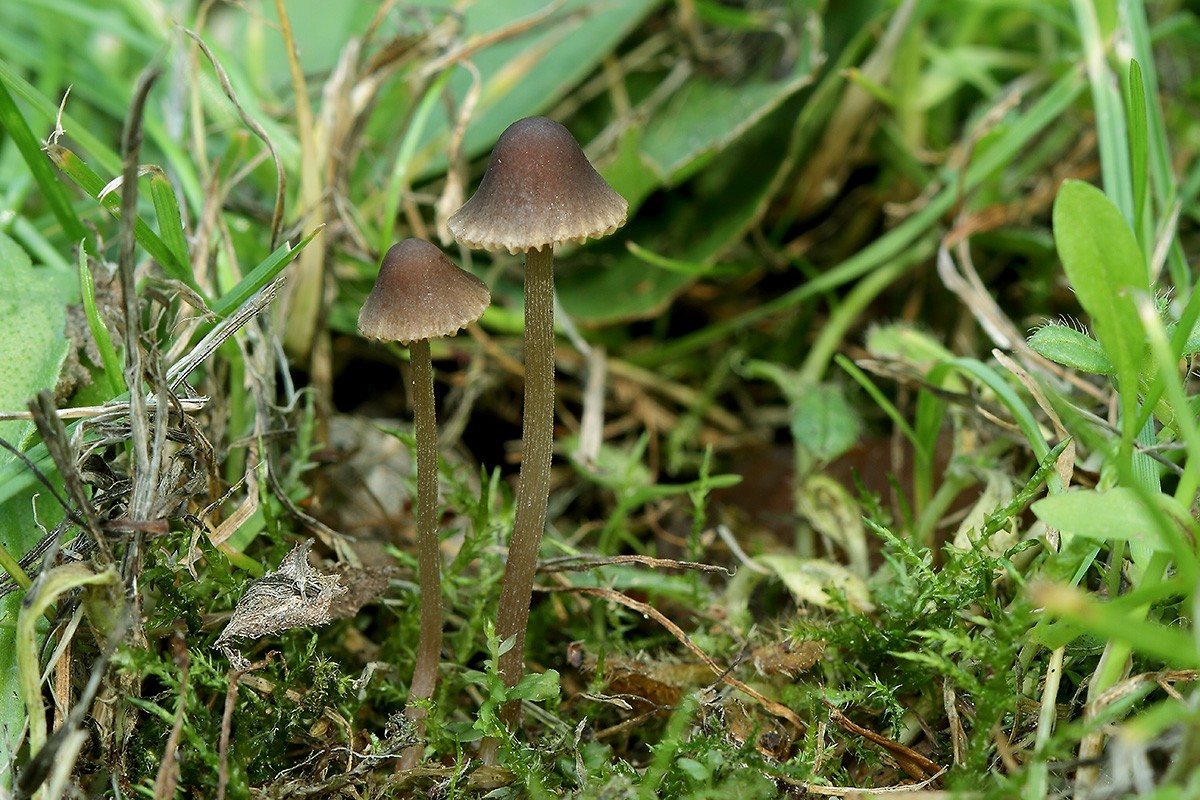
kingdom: Fungi
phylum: Basidiomycota
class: Agaricomycetes
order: Agaricales
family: Bolbitiaceae
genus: Conocybe
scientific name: Conocybe moseri
